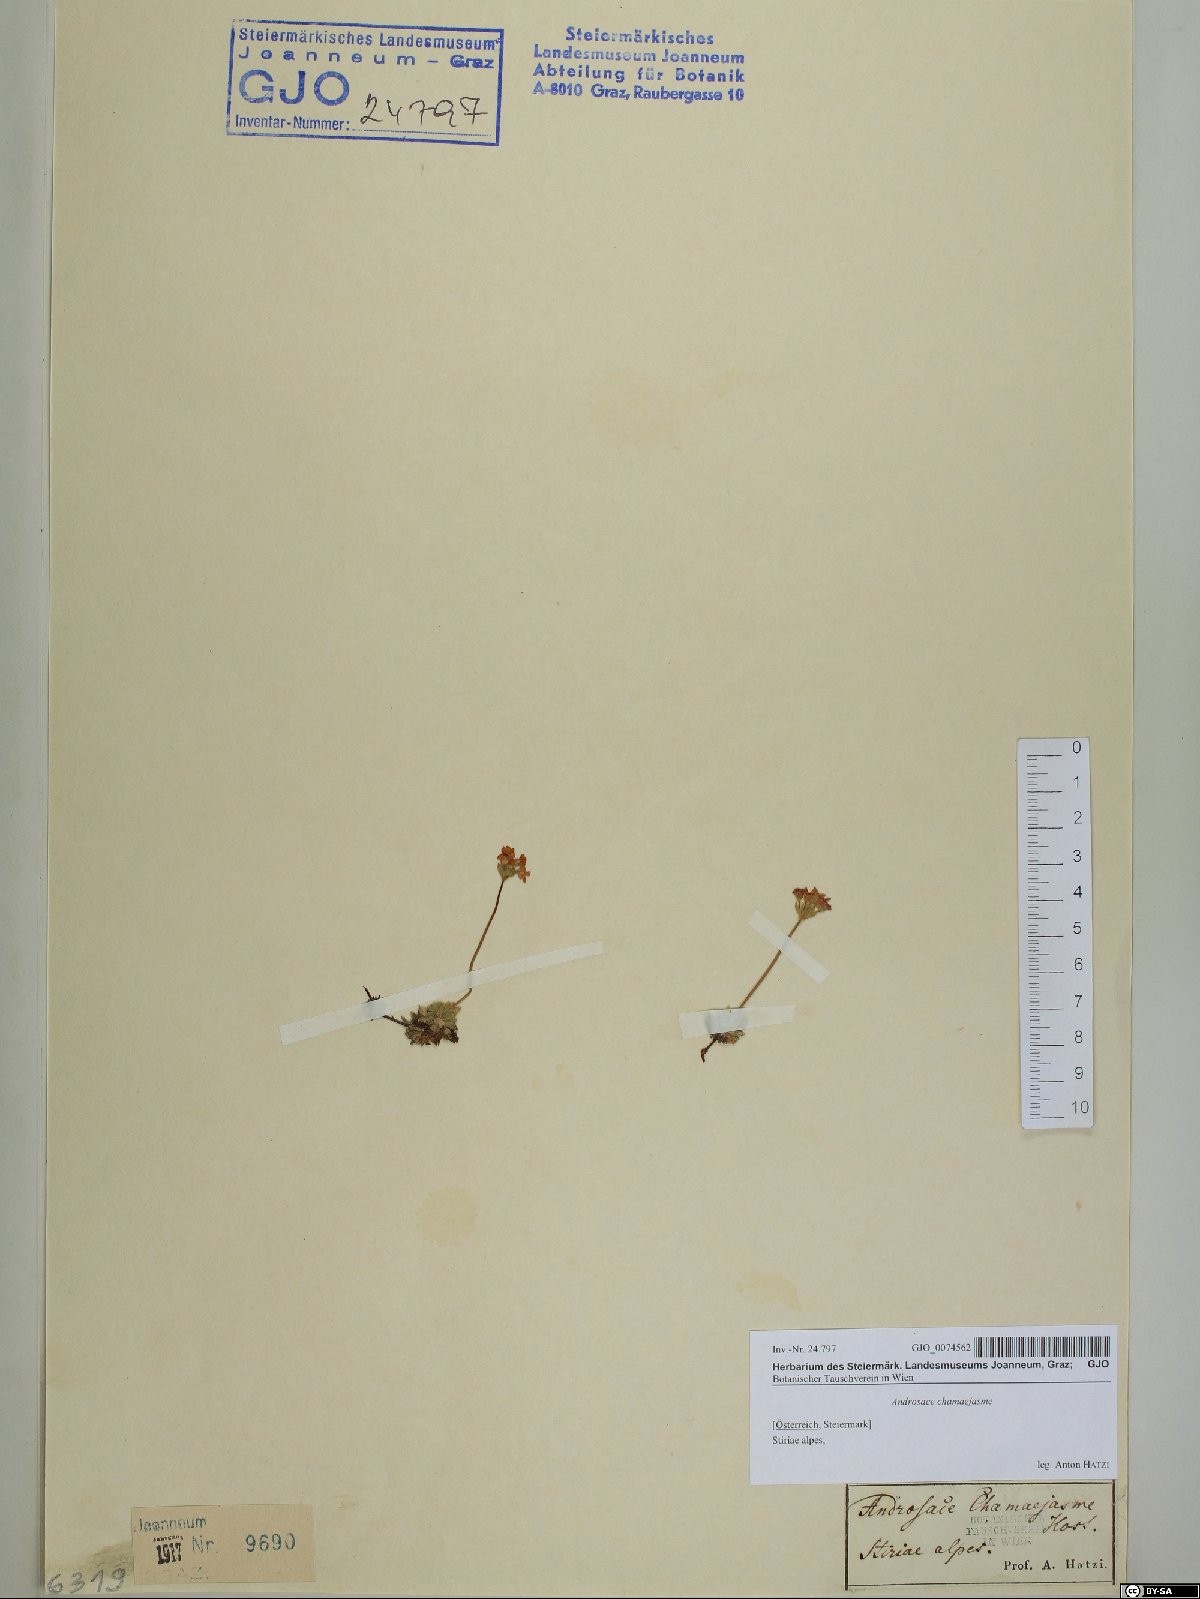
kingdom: Plantae
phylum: Tracheophyta
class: Magnoliopsida
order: Ericales
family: Primulaceae
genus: Androsace
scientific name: Androsace chamaejasme
